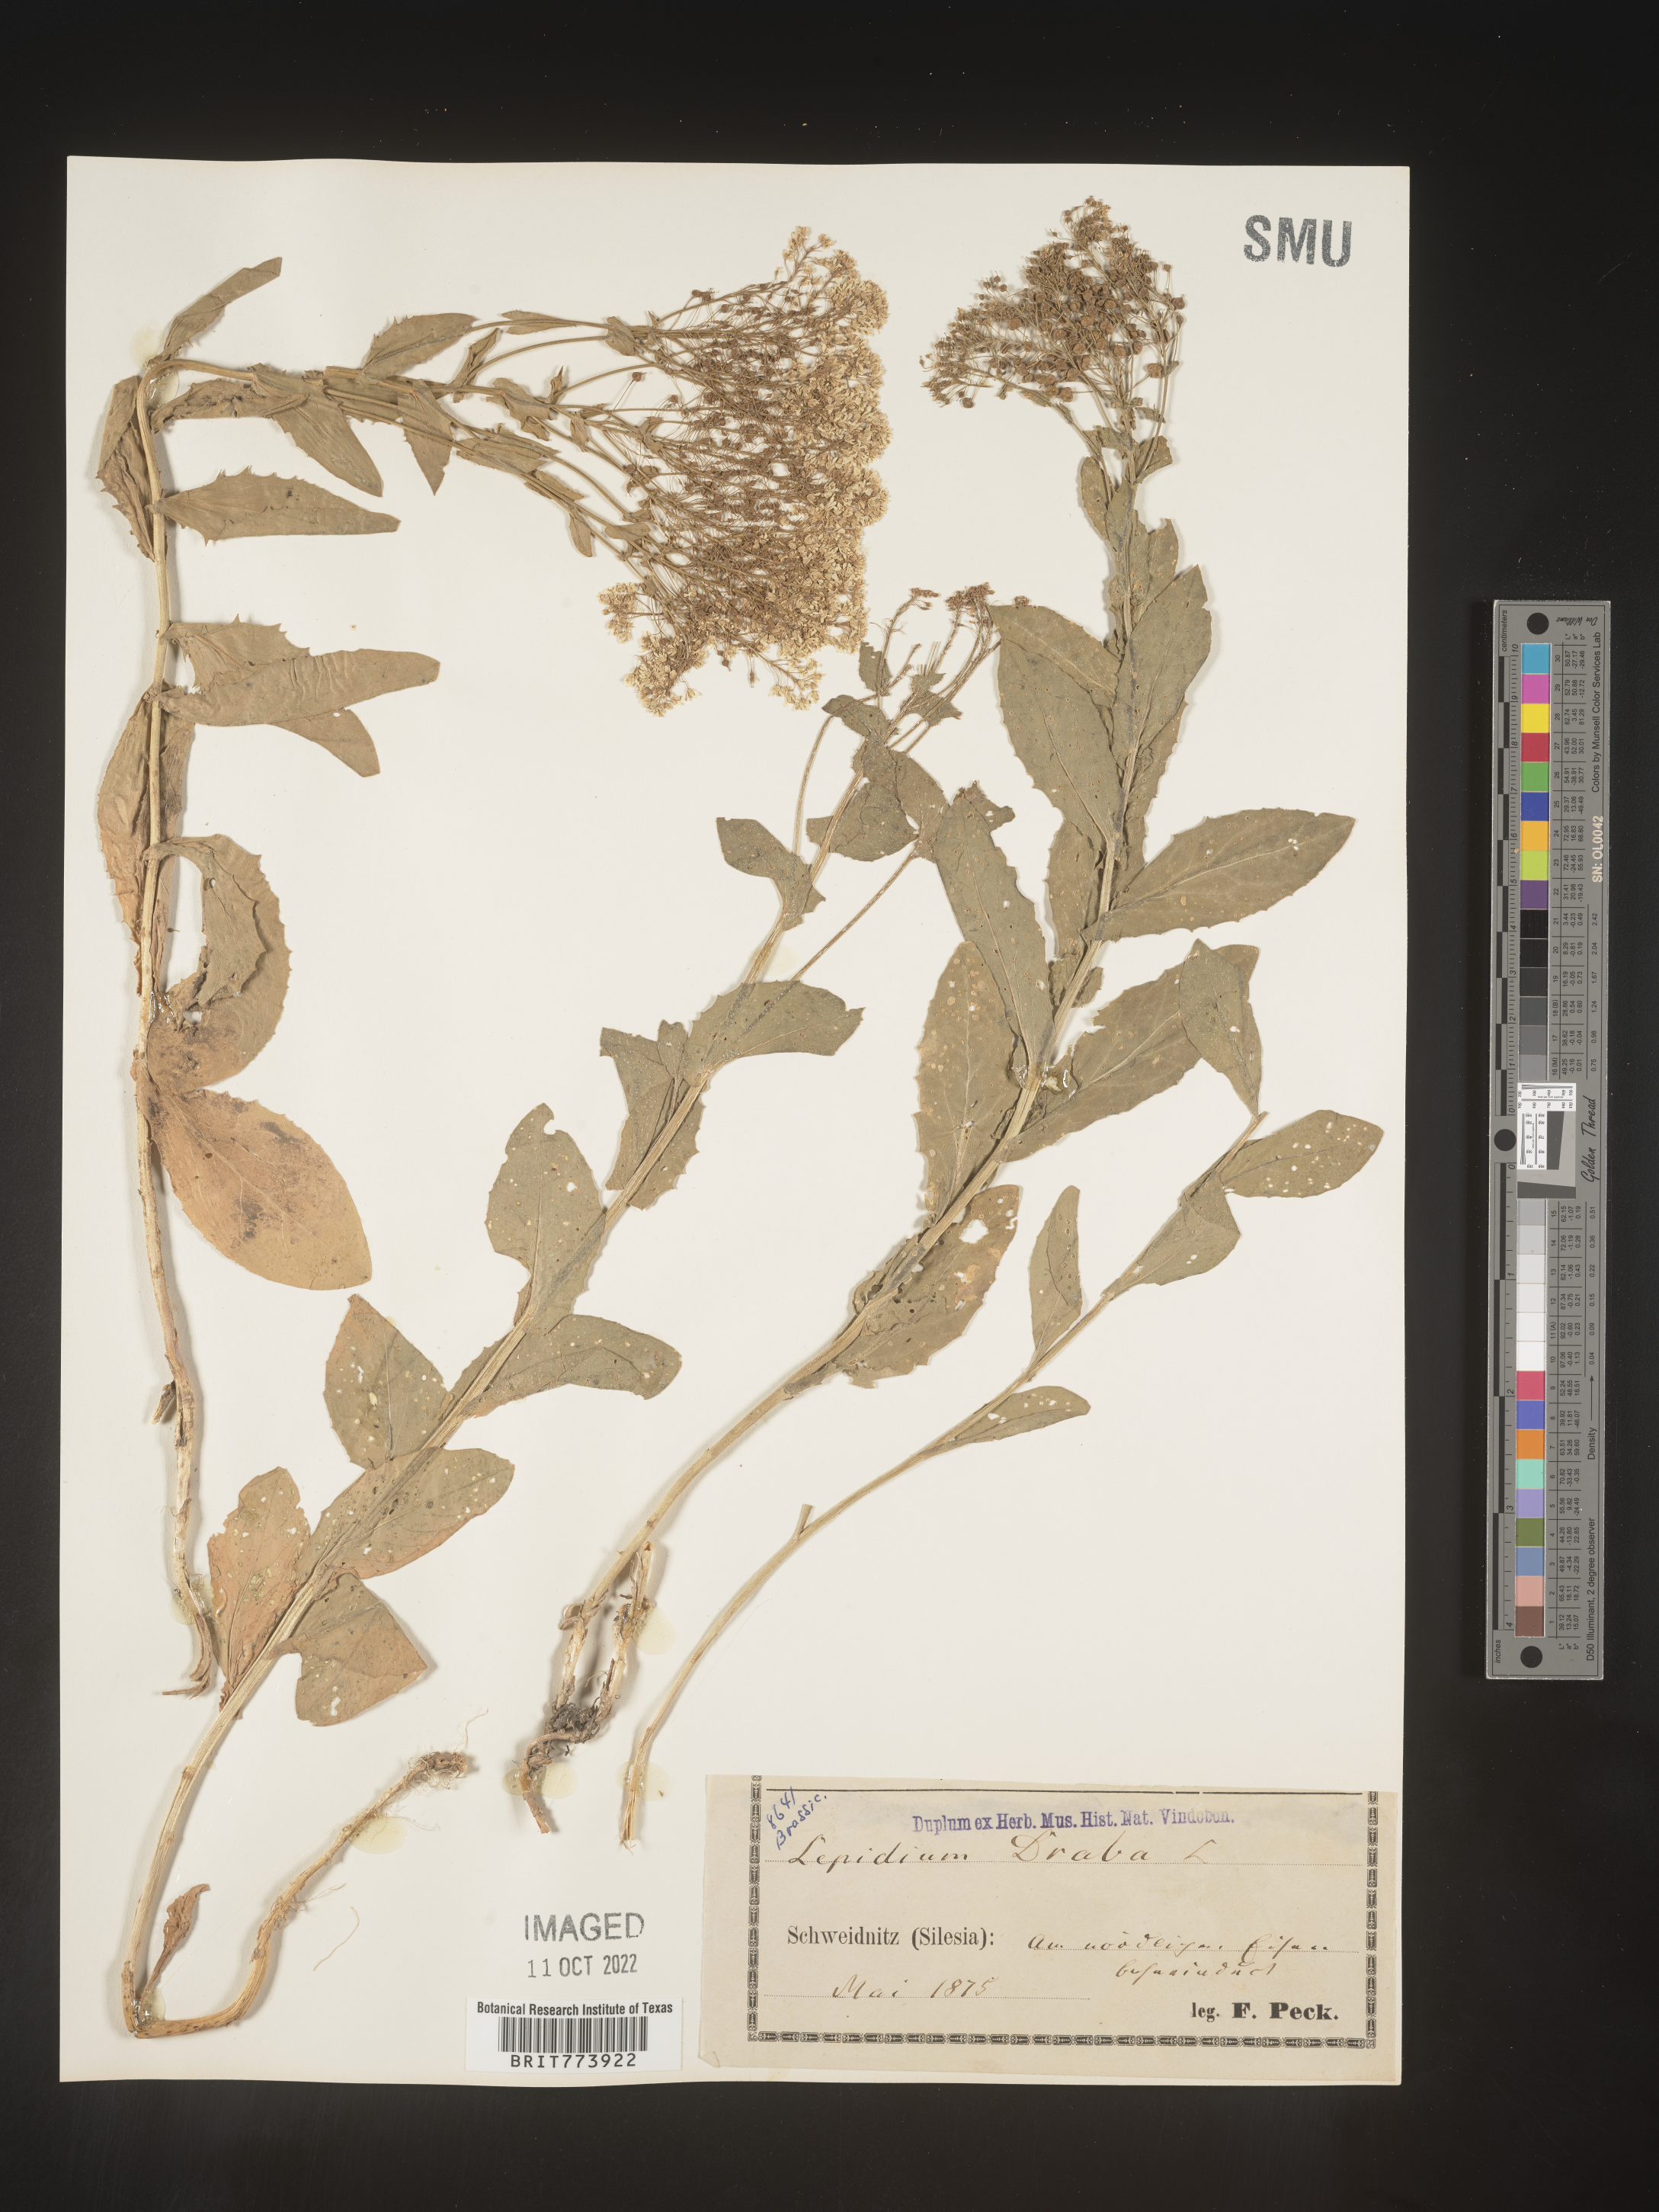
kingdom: Plantae
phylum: Tracheophyta
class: Magnoliopsida
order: Brassicales
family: Brassicaceae
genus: Lepidium
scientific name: Lepidium
